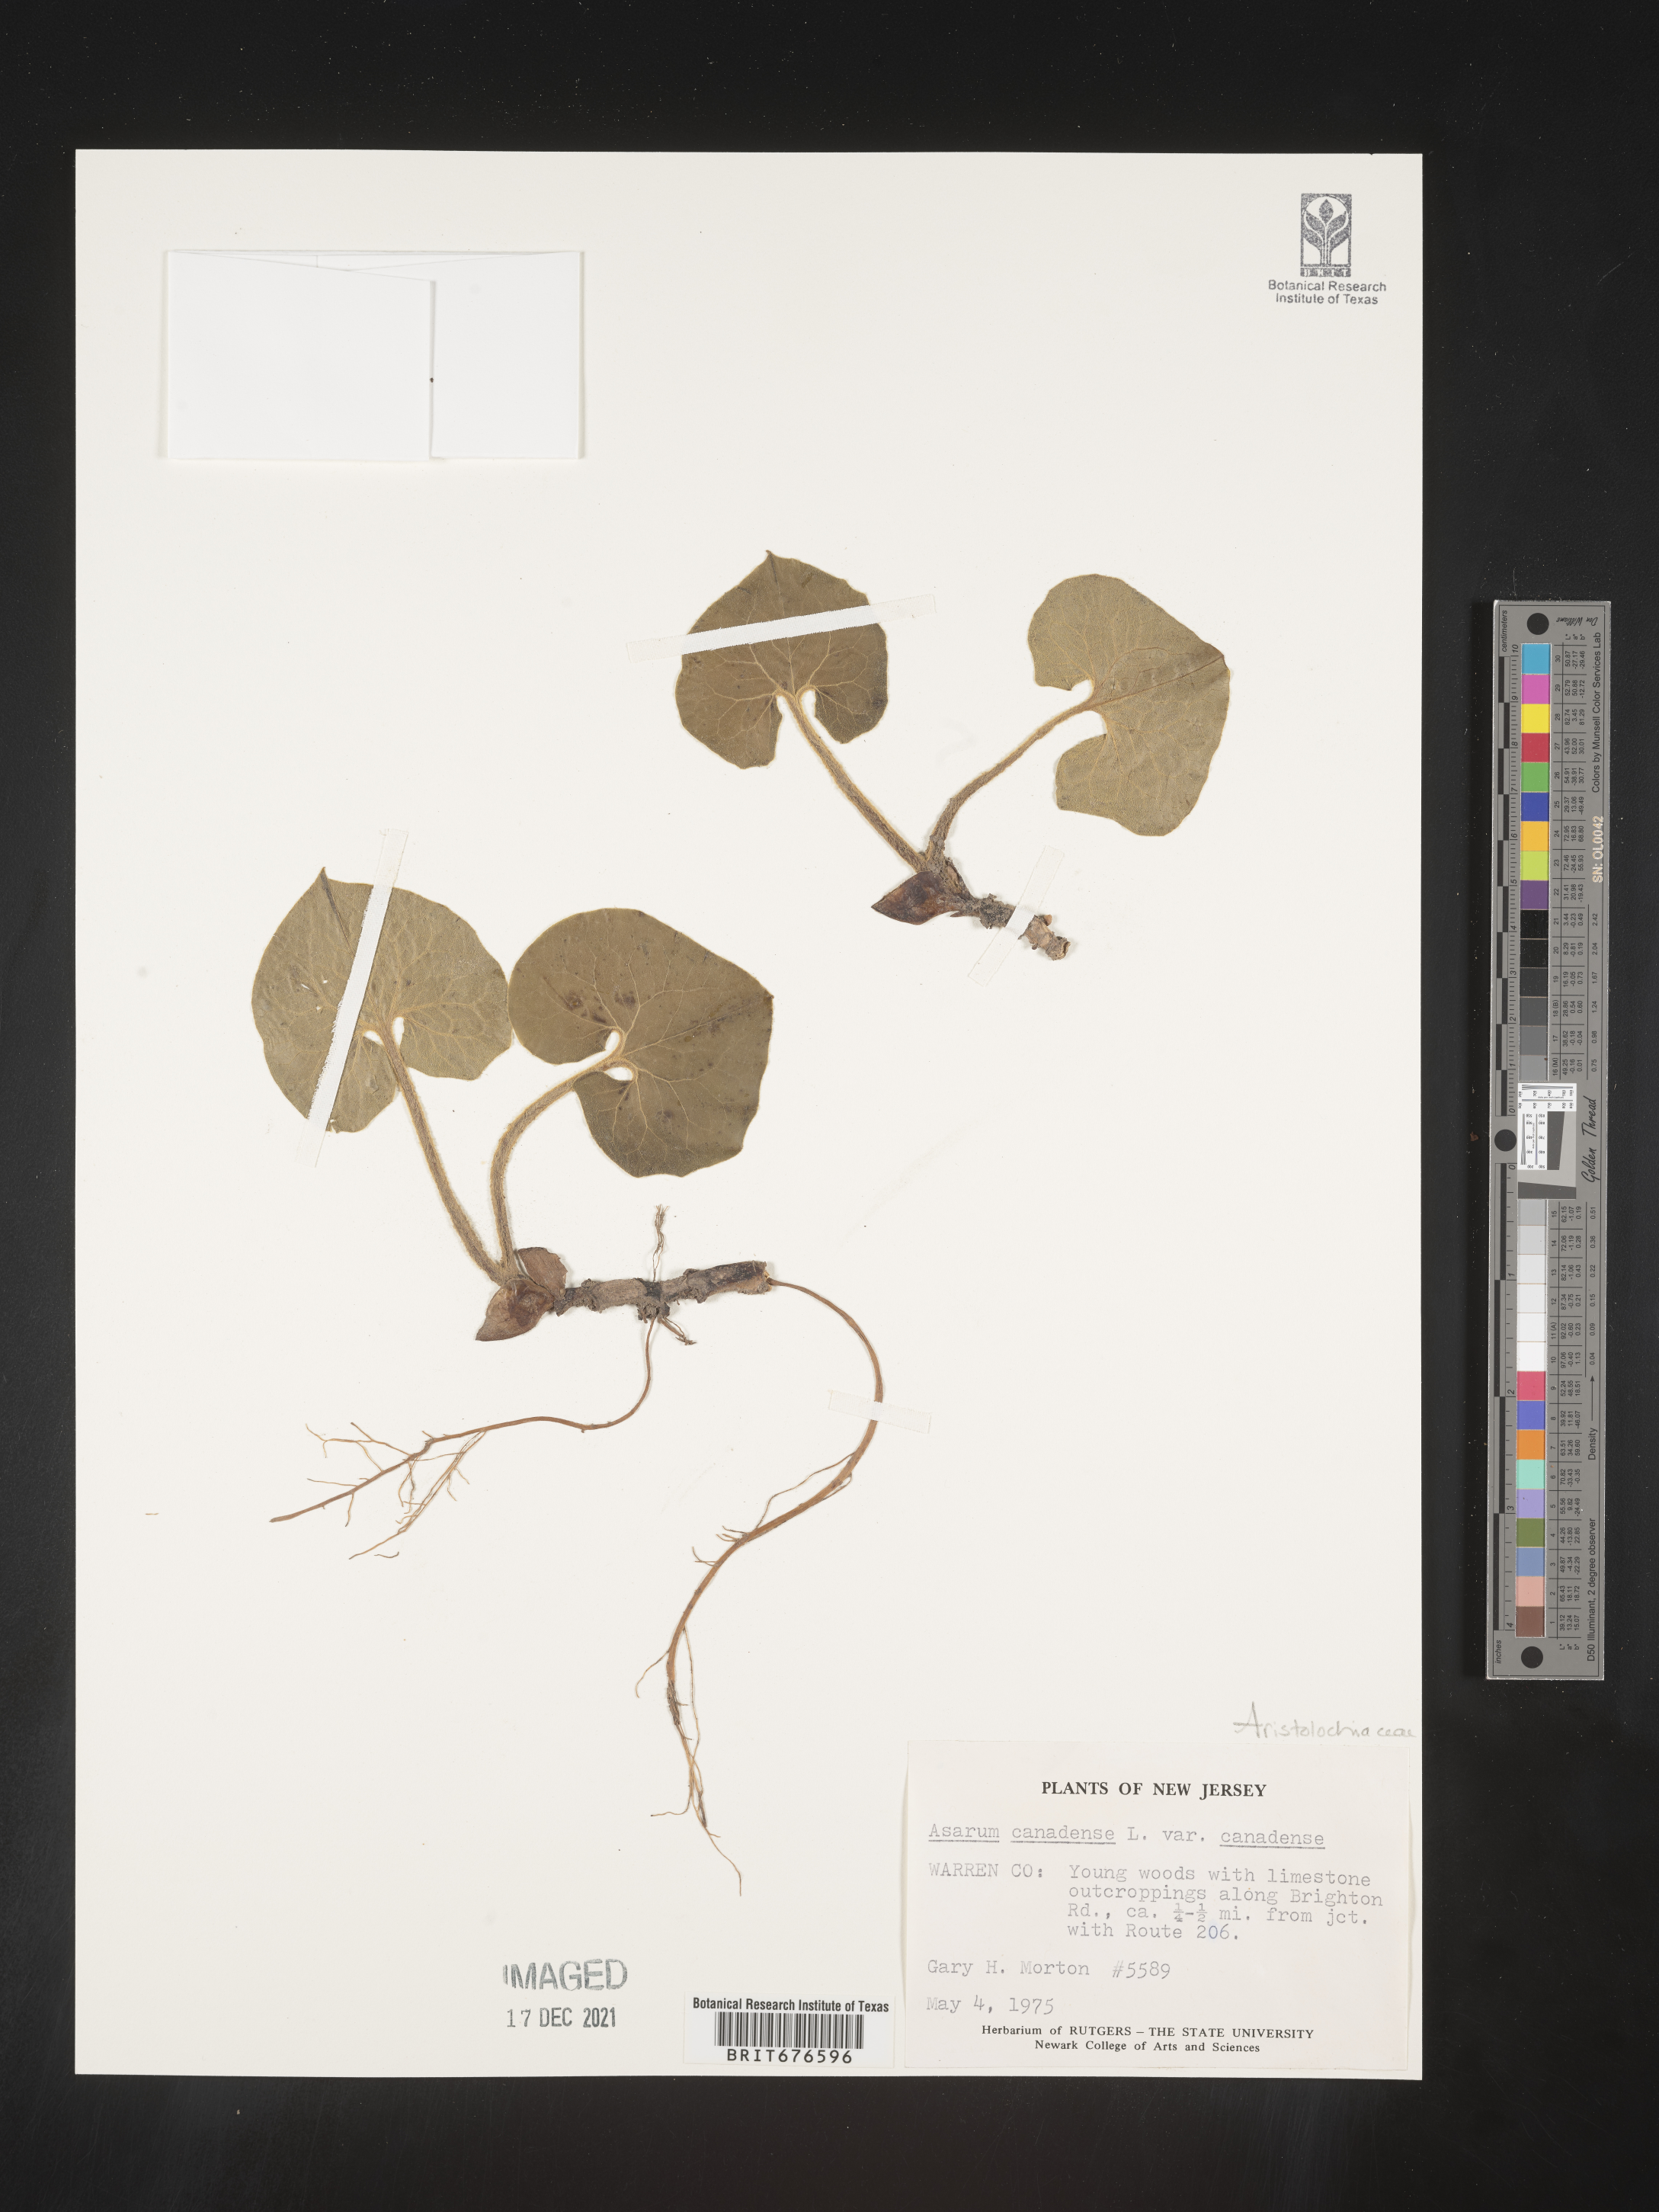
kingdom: Plantae
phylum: Tracheophyta
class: Magnoliopsida
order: Piperales
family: Aristolochiaceae
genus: Asarum
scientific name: Asarum canadense
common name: Wild ginger
